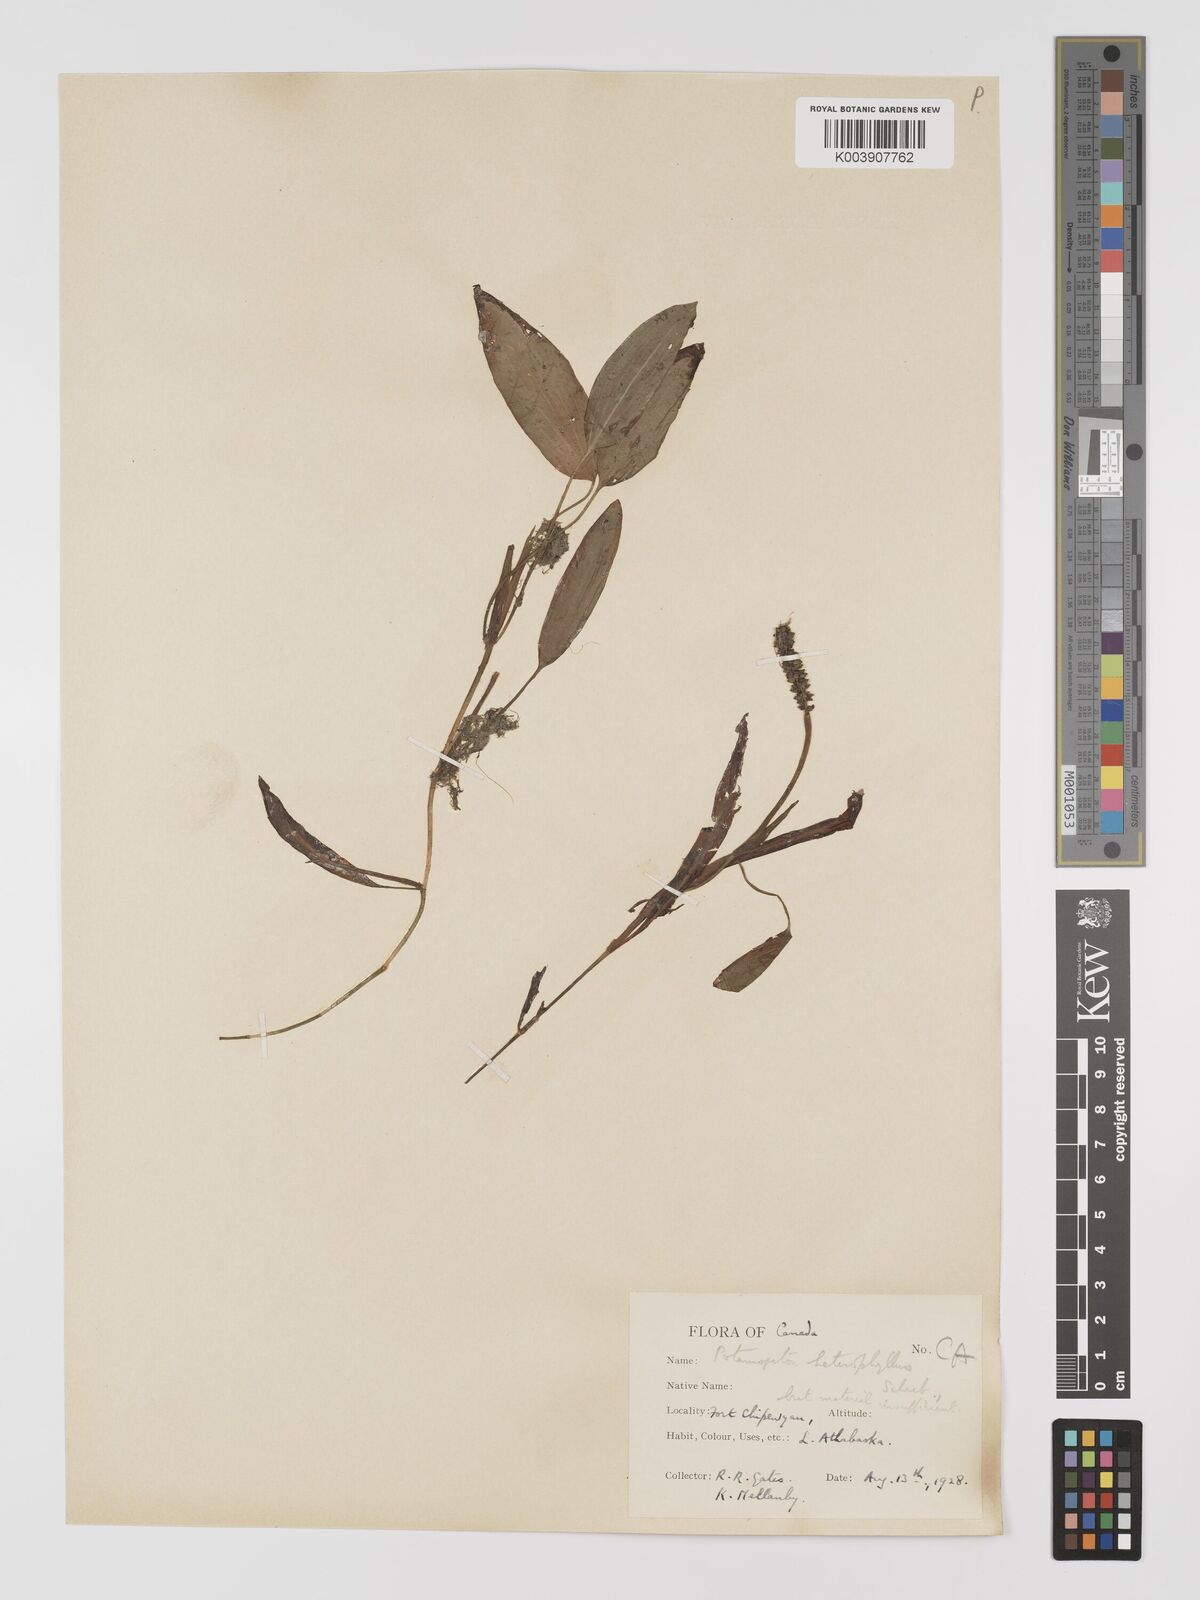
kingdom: Plantae
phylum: Tracheophyta
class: Liliopsida
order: Alismatales
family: Potamogetonaceae
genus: Potamogeton
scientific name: Potamogeton gramineus
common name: Various-leaved pondweed
